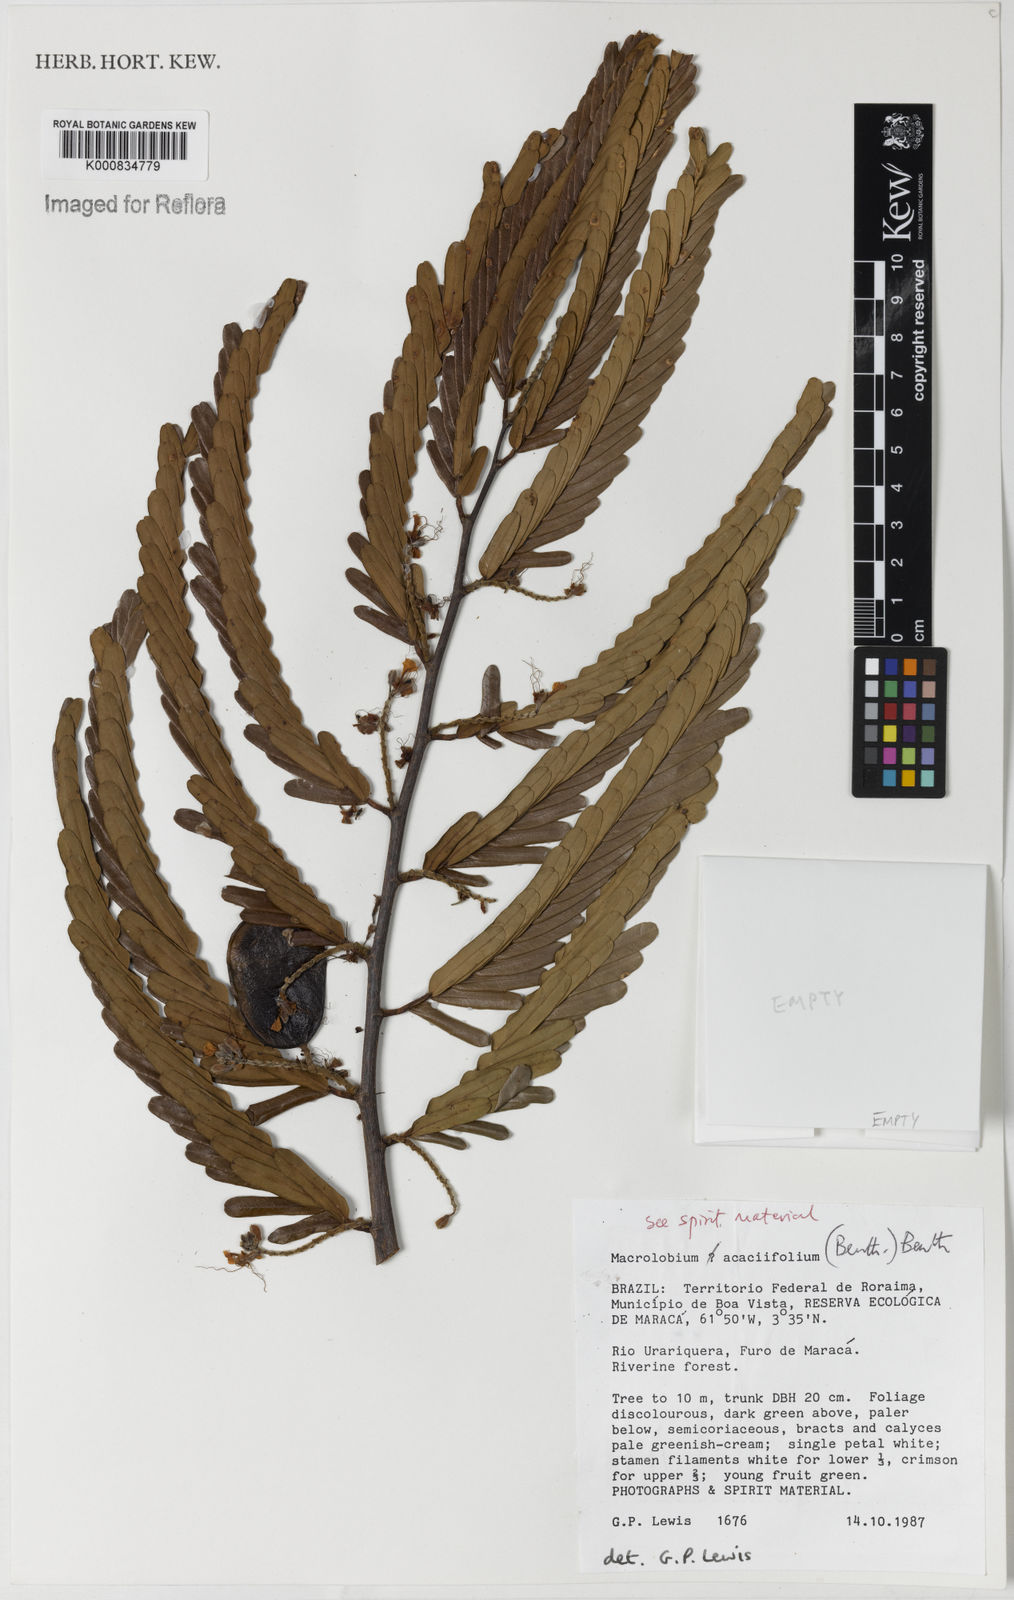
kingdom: Plantae
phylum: Tracheophyta
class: Magnoliopsida
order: Fabales
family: Fabaceae
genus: Macrolobium
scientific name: Macrolobium acaciifolium
